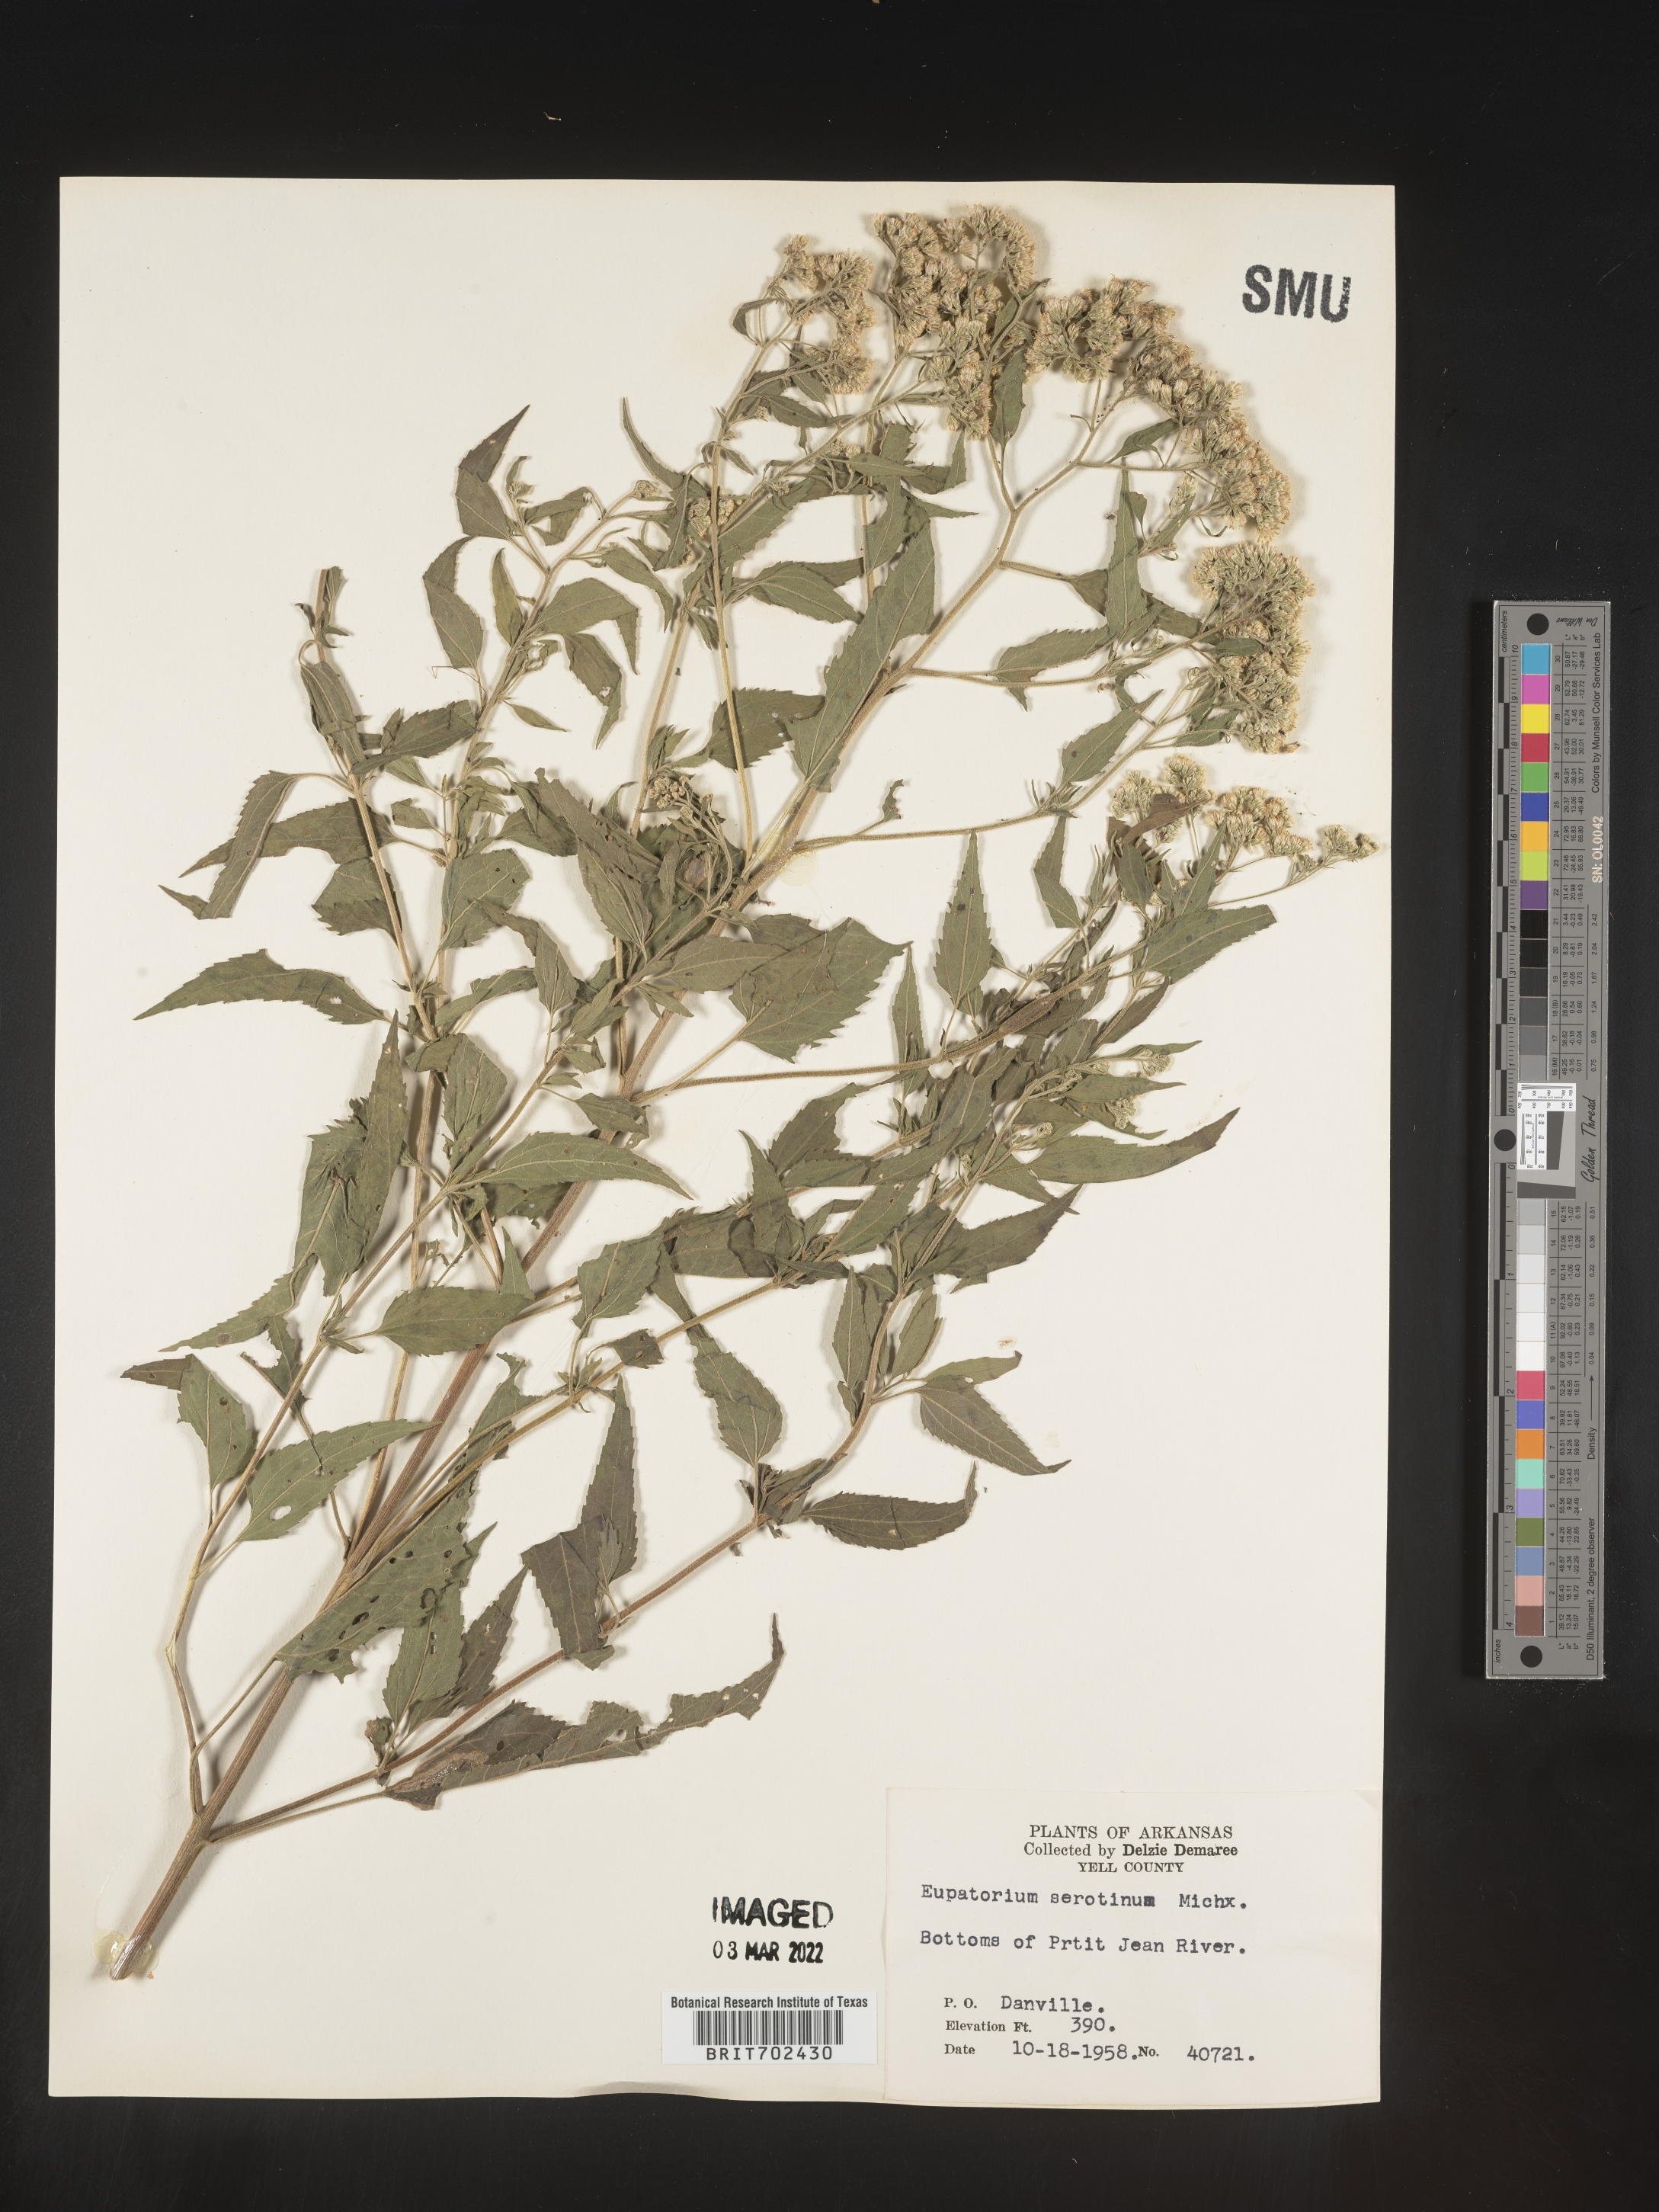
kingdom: Plantae
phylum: Tracheophyta
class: Magnoliopsida
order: Asterales
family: Asteraceae
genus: Eupatorium
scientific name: Eupatorium serotinum
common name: Late boneset
